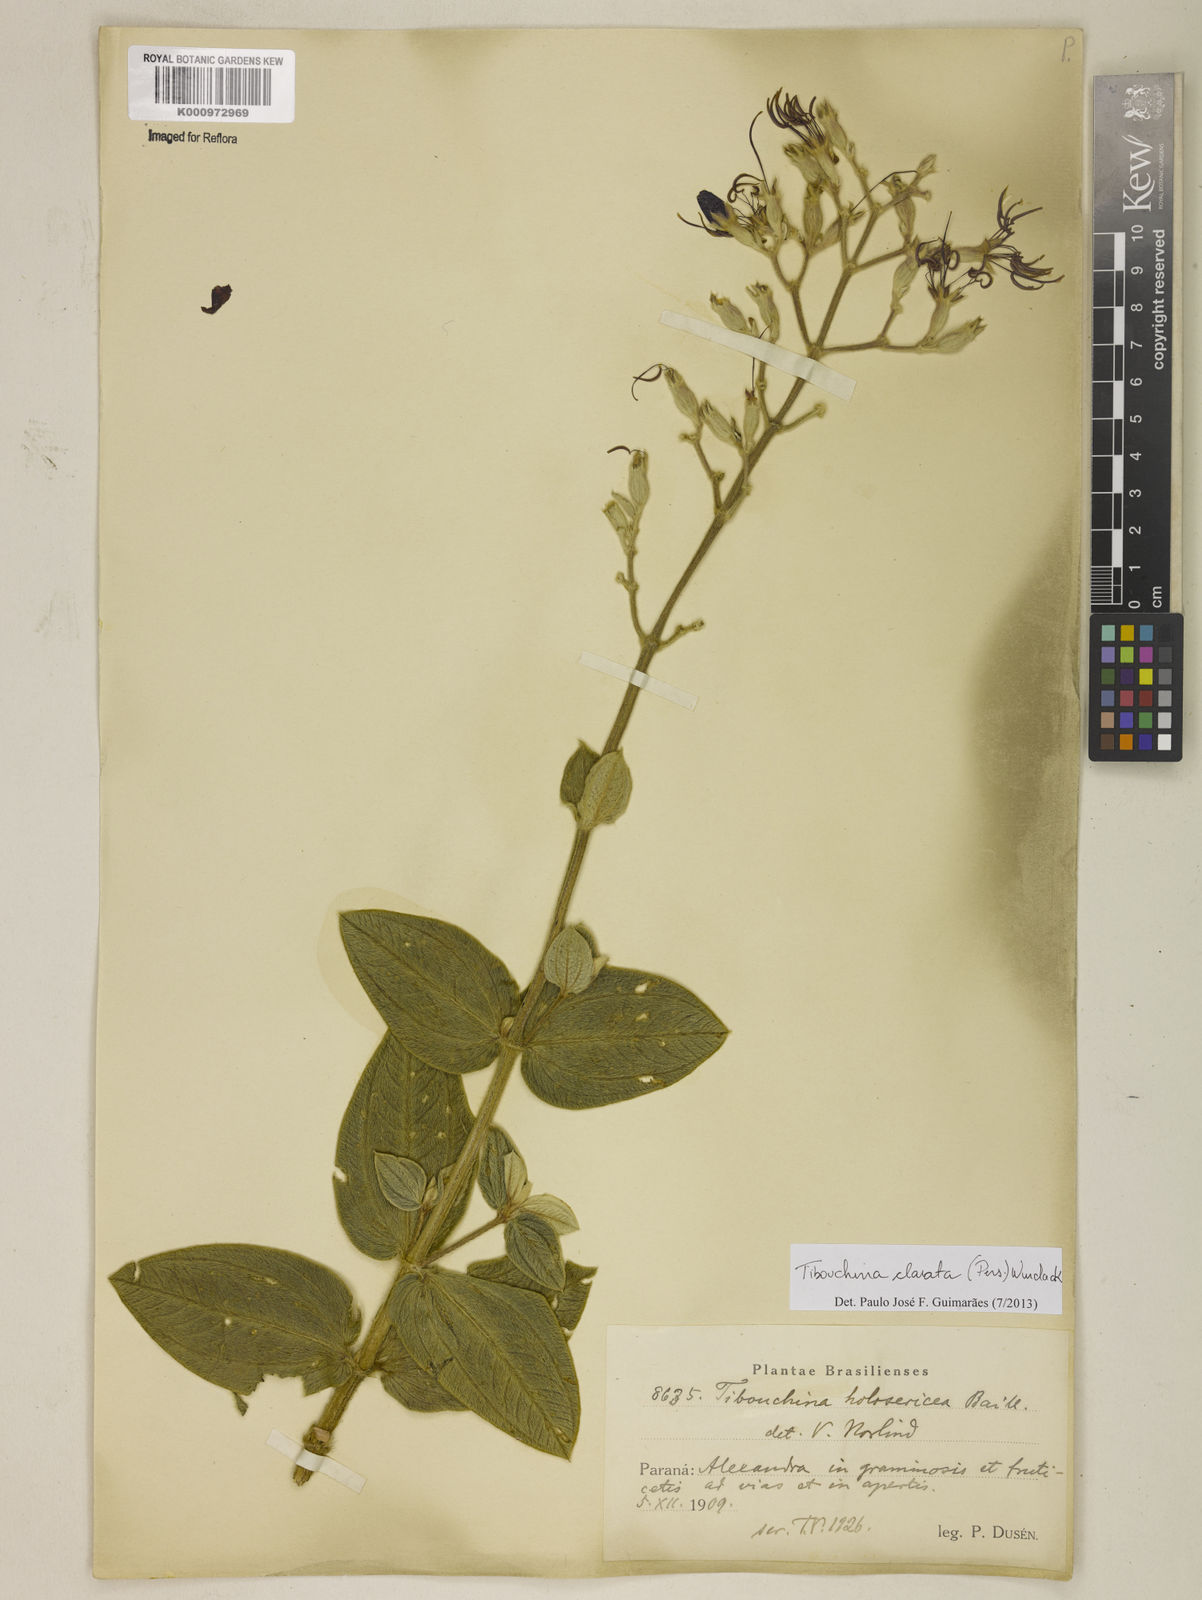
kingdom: Plantae
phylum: Tracheophyta
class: Magnoliopsida
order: Myrtales
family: Melastomataceae
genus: Pleroma
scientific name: Pleroma clavatum
